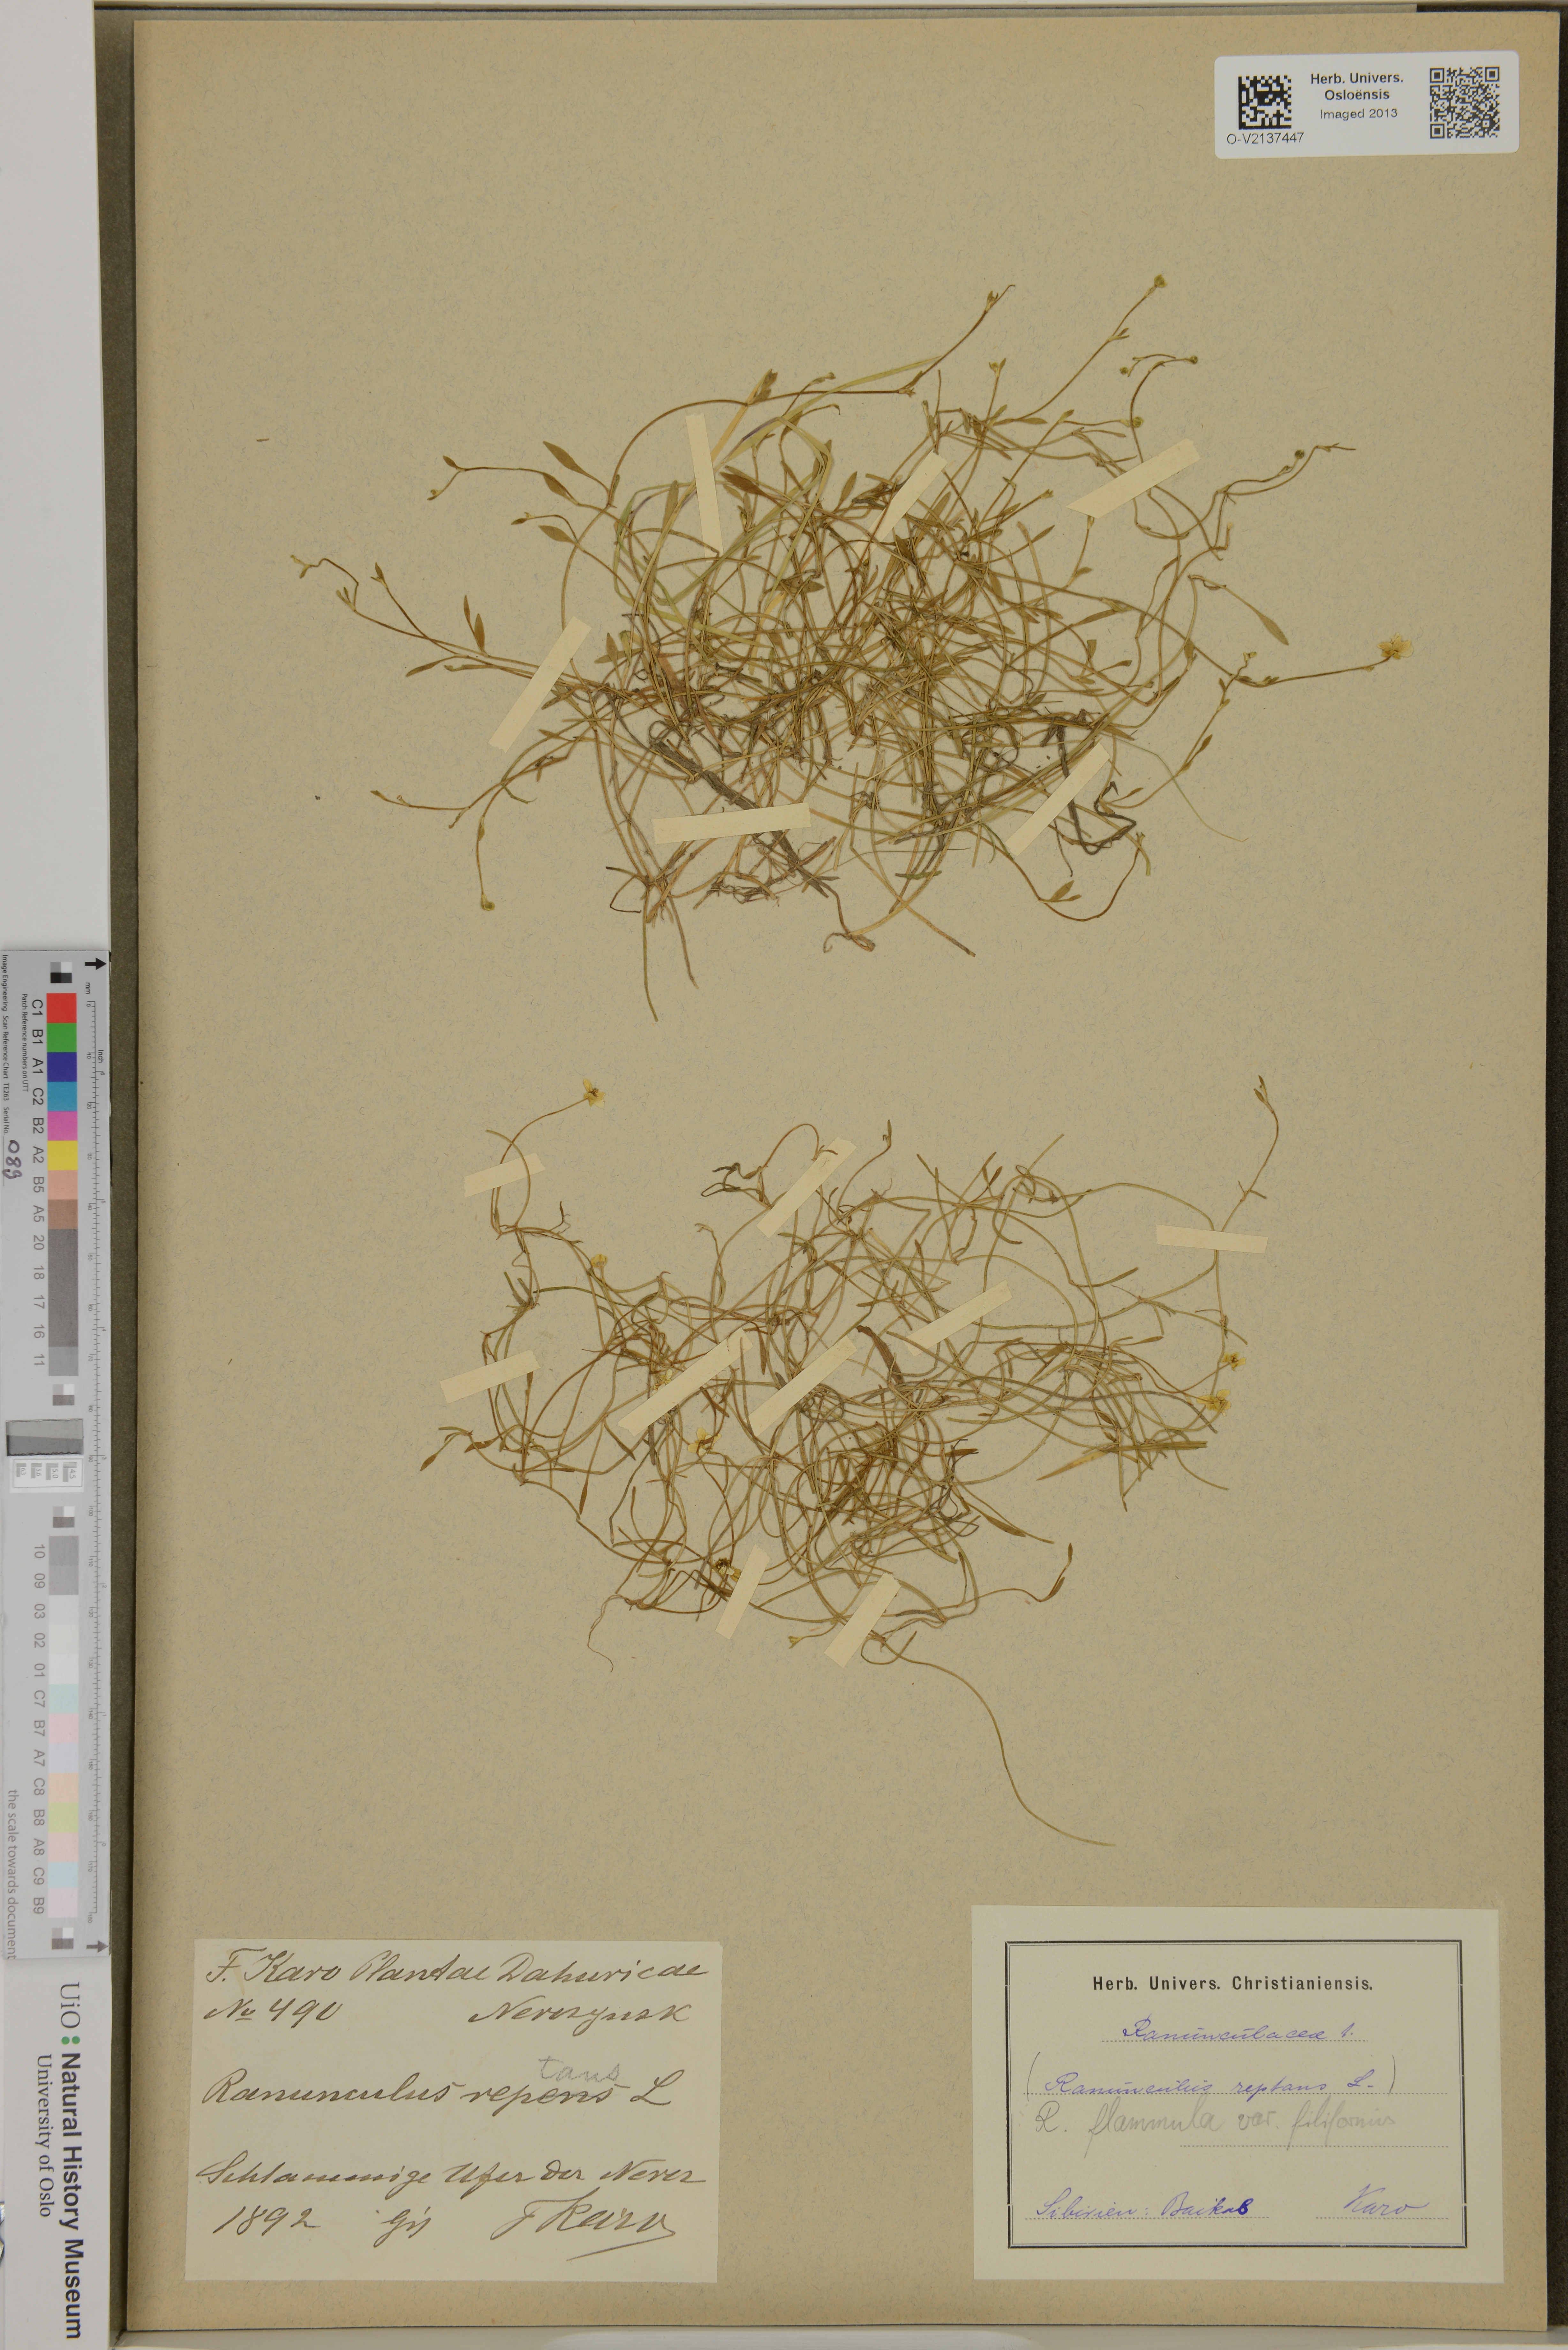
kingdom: Plantae
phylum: Tracheophyta
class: Magnoliopsida
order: Ranunculales
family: Ranunculaceae
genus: Ranunculus
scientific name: Ranunculus reptans
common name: Creeping spearwort
